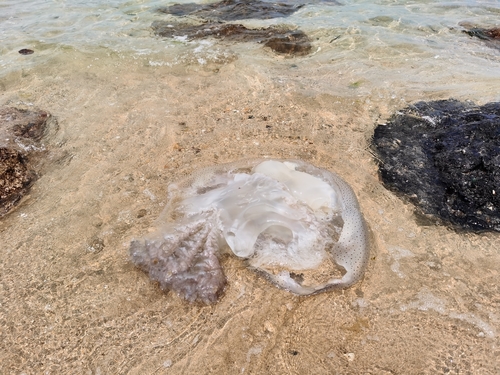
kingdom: Animalia
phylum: Cnidaria
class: Scyphozoa
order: Rhizostomeae
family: Rhizostomatidae
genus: Rhopilema
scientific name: Rhopilema hispidum
